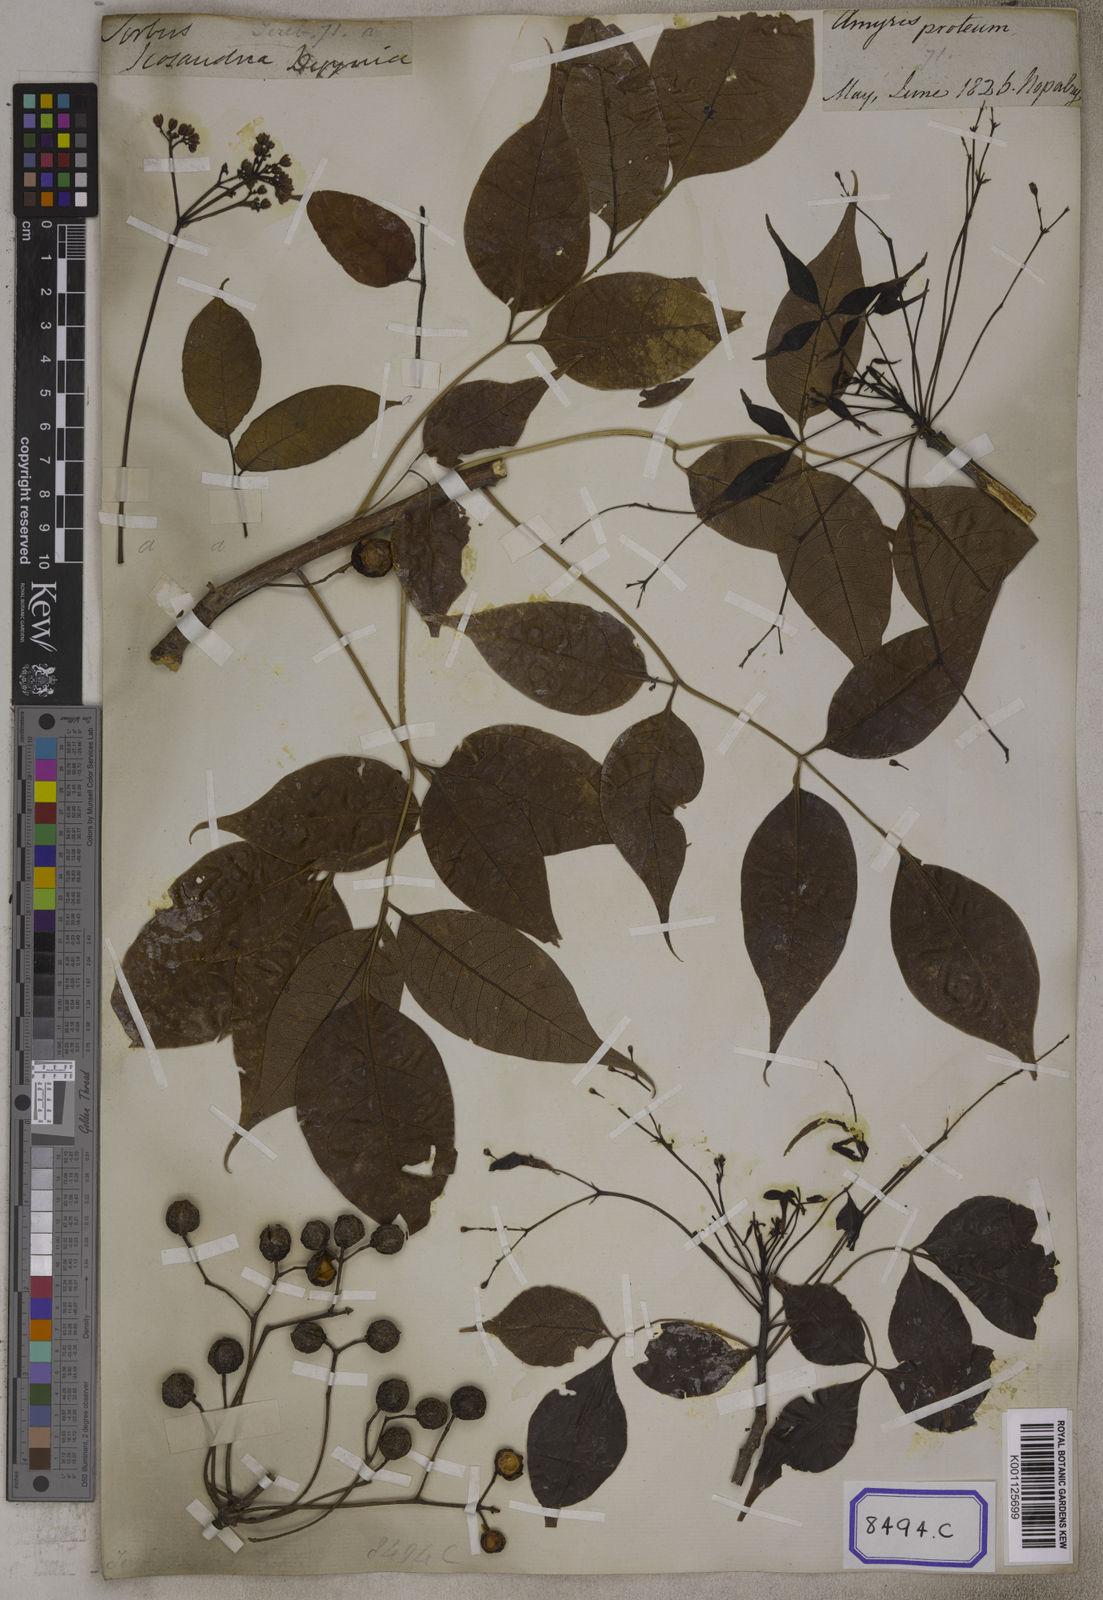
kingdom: Plantae
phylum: Tracheophyta
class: Magnoliopsida
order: Sapindales
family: Burseraceae
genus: Commiphora
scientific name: Commiphora caudata
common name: Hill-mango
